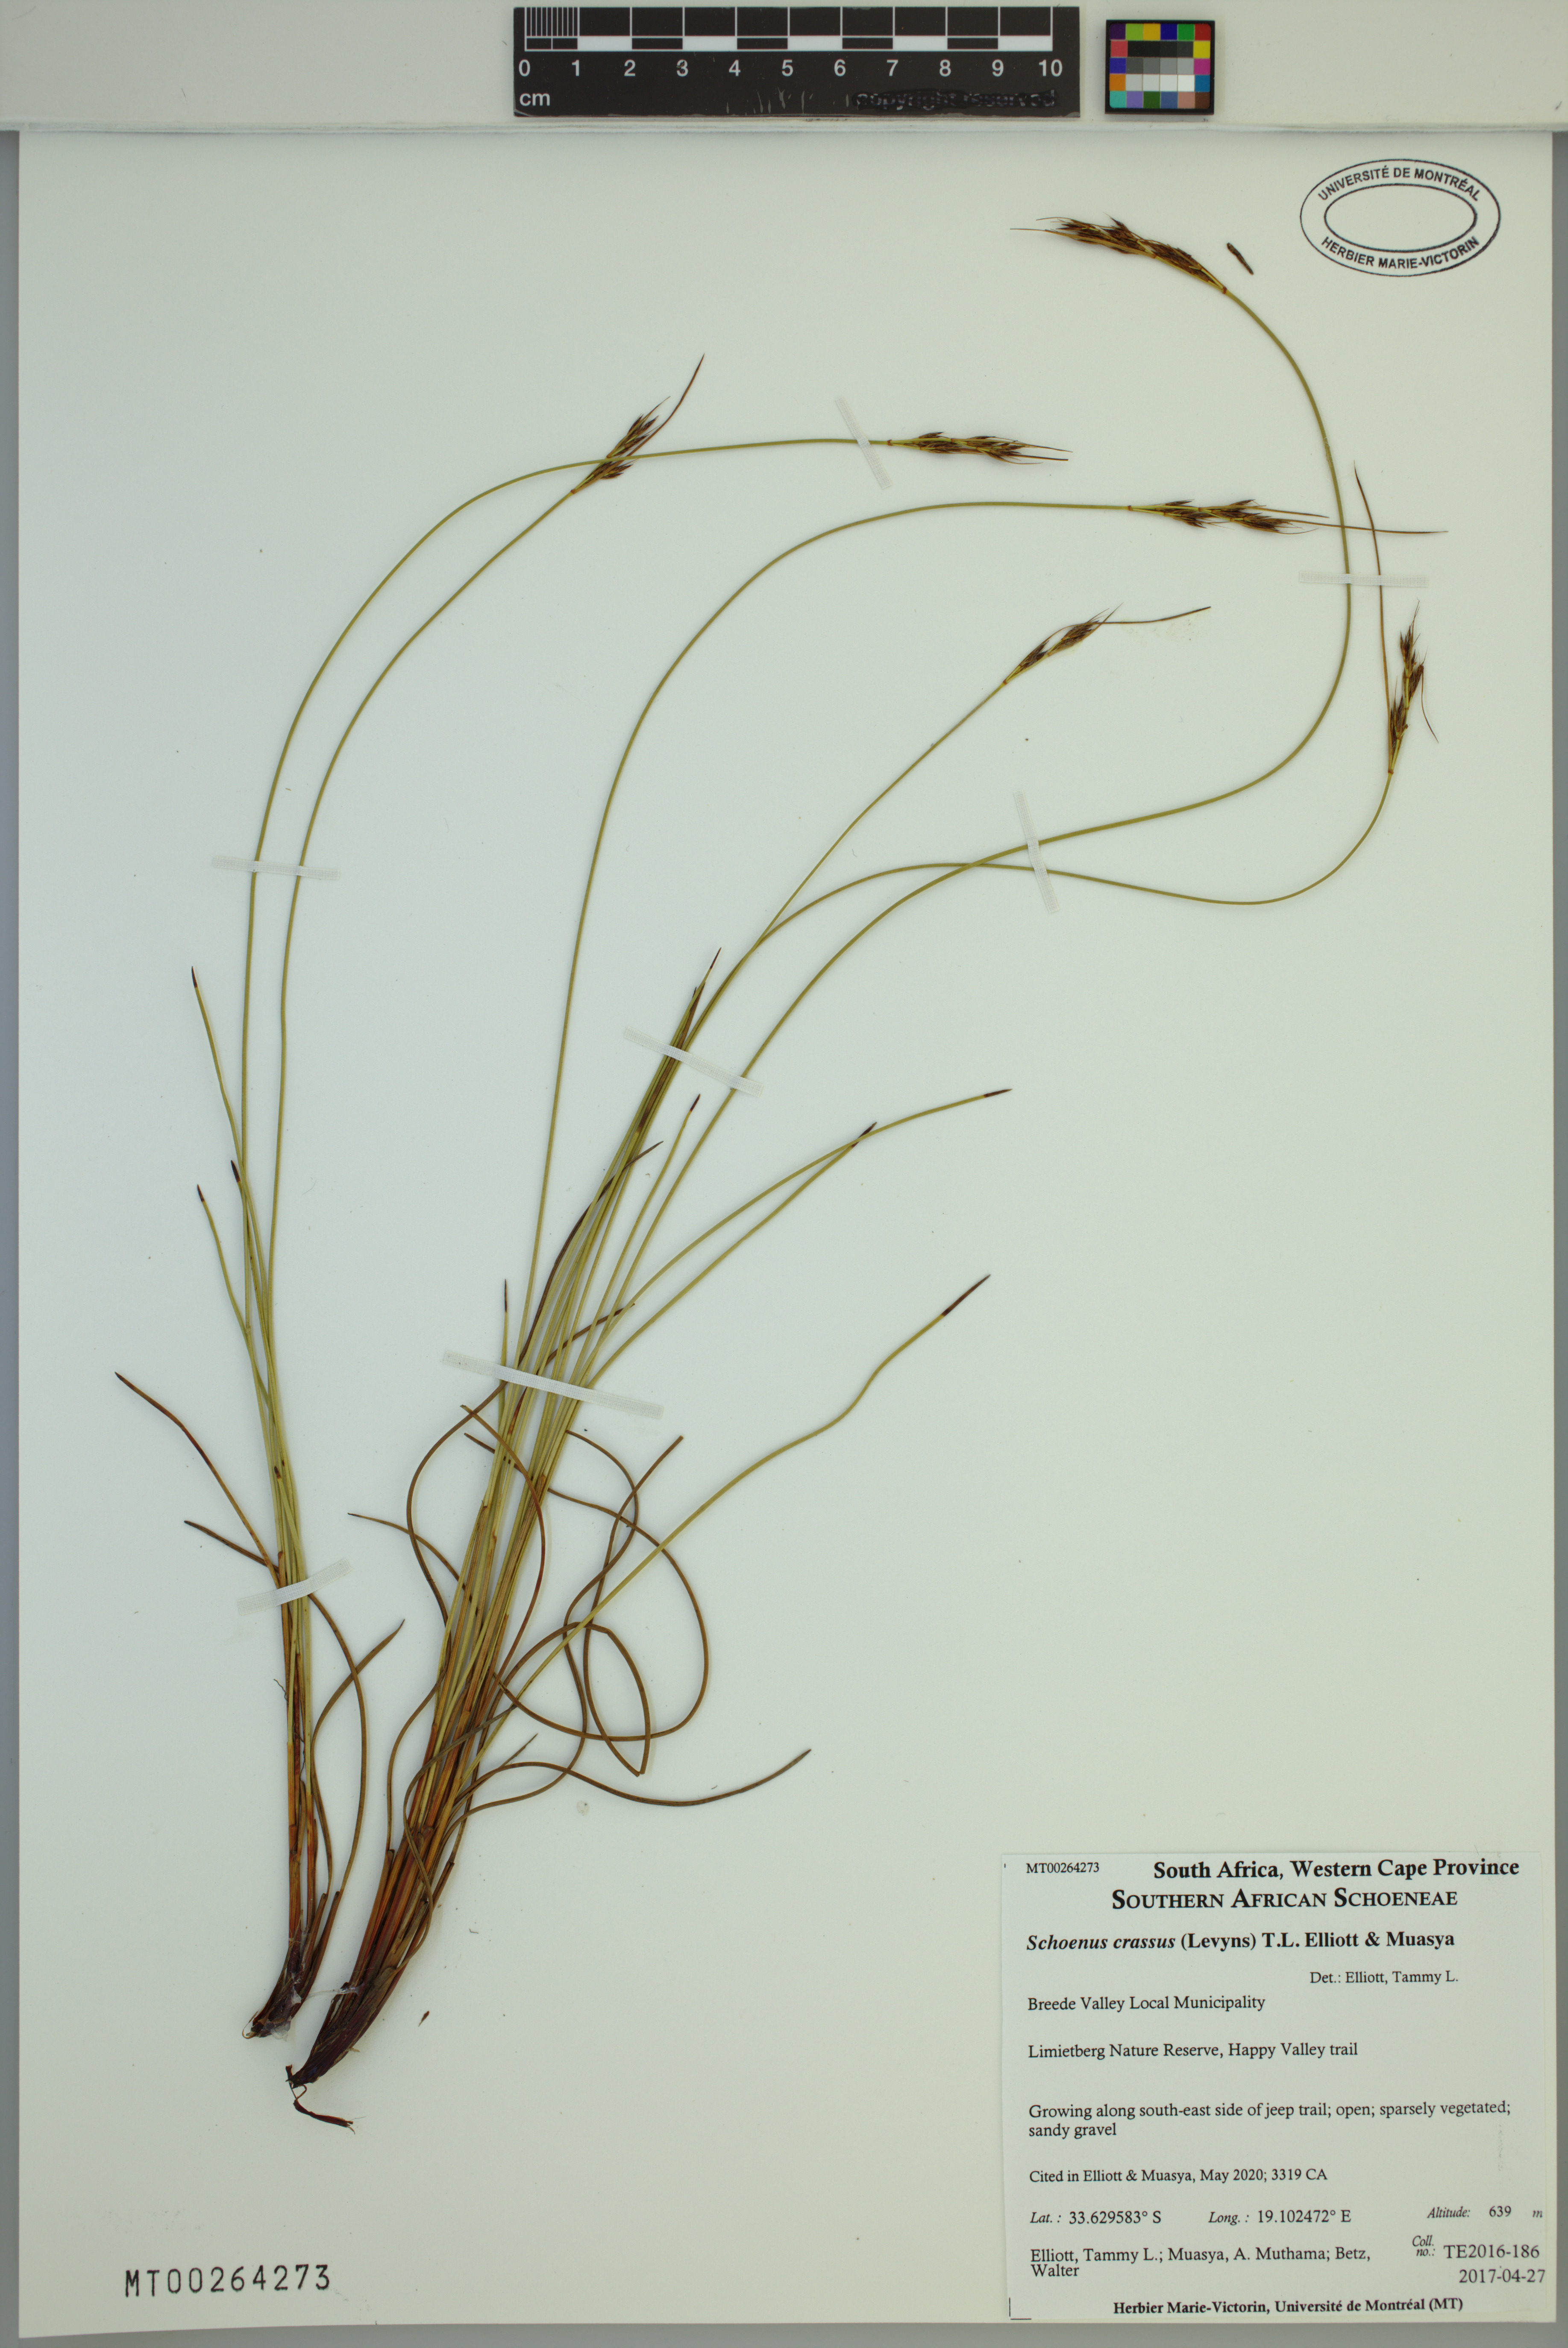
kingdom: Plantae
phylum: Tracheophyta
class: Liliopsida
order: Poales
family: Cyperaceae
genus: Schoenus
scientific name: Schoenus crassus
